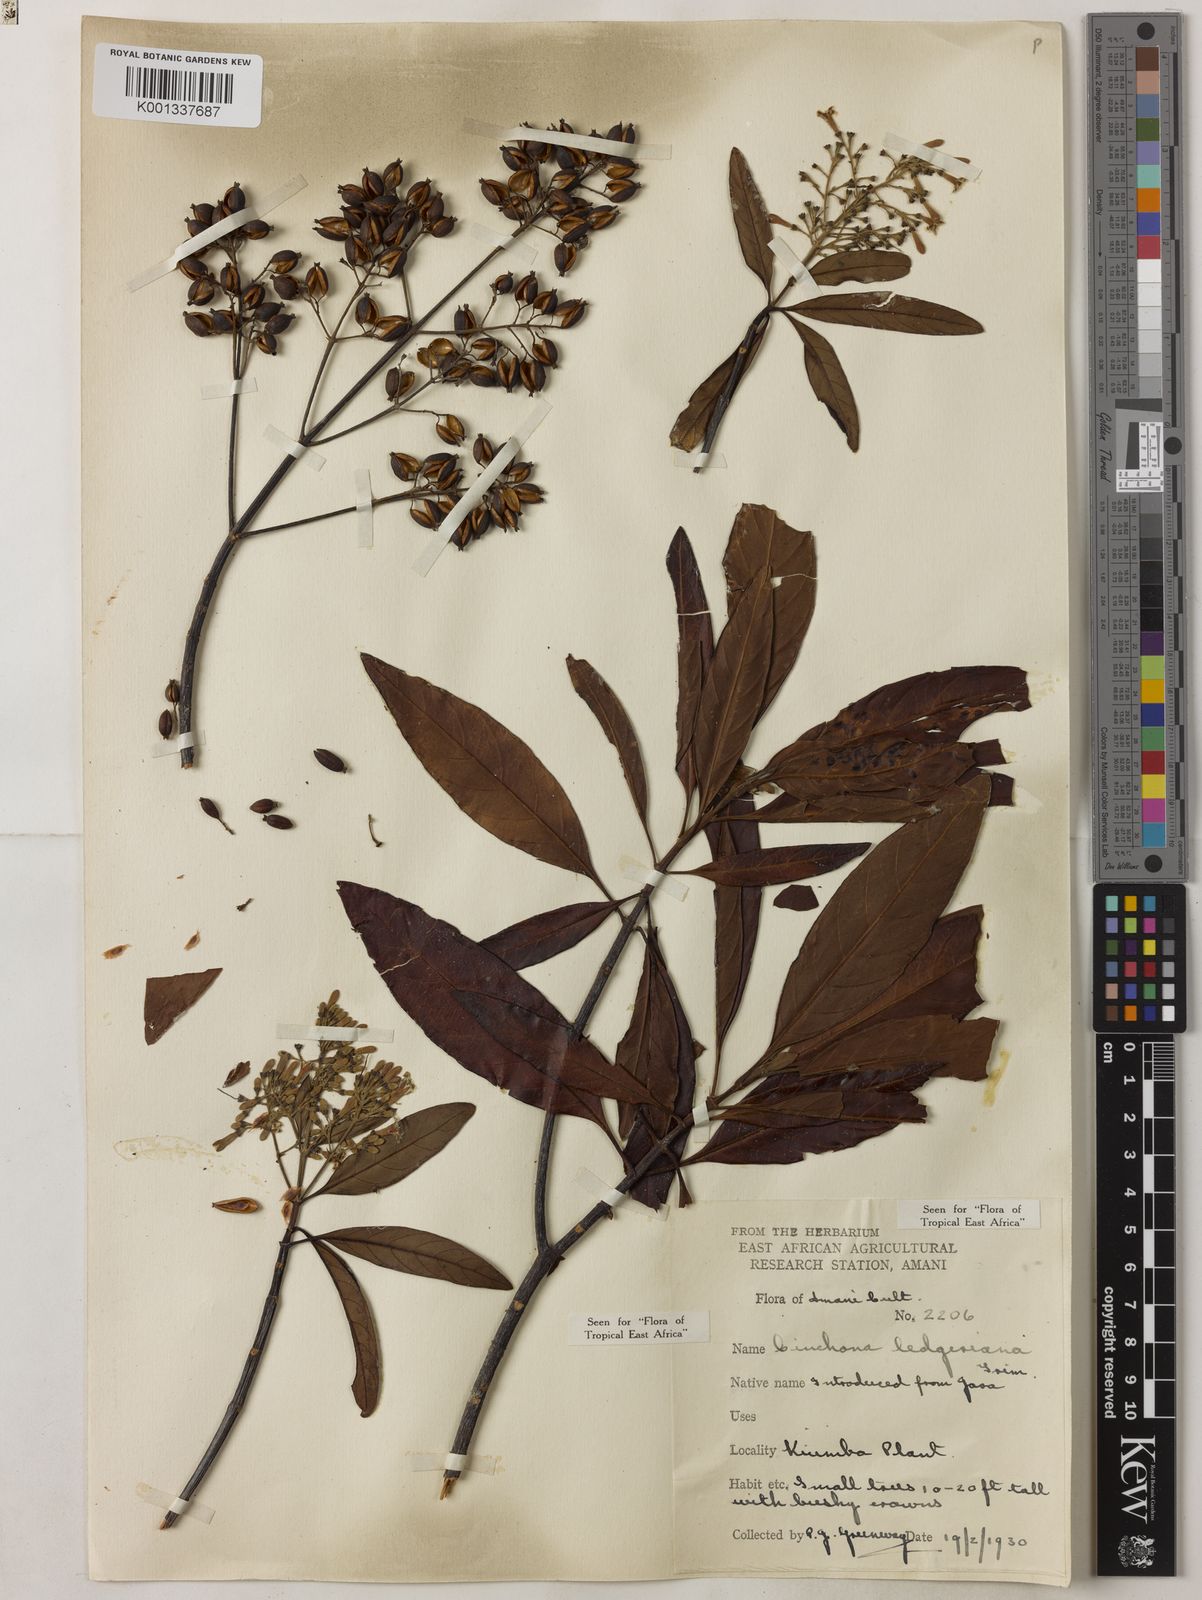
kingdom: Plantae
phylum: Tracheophyta
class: Magnoliopsida
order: Gentianales
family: Rubiaceae
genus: Cinchona
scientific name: Cinchona calisaya
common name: Ledgerbark
